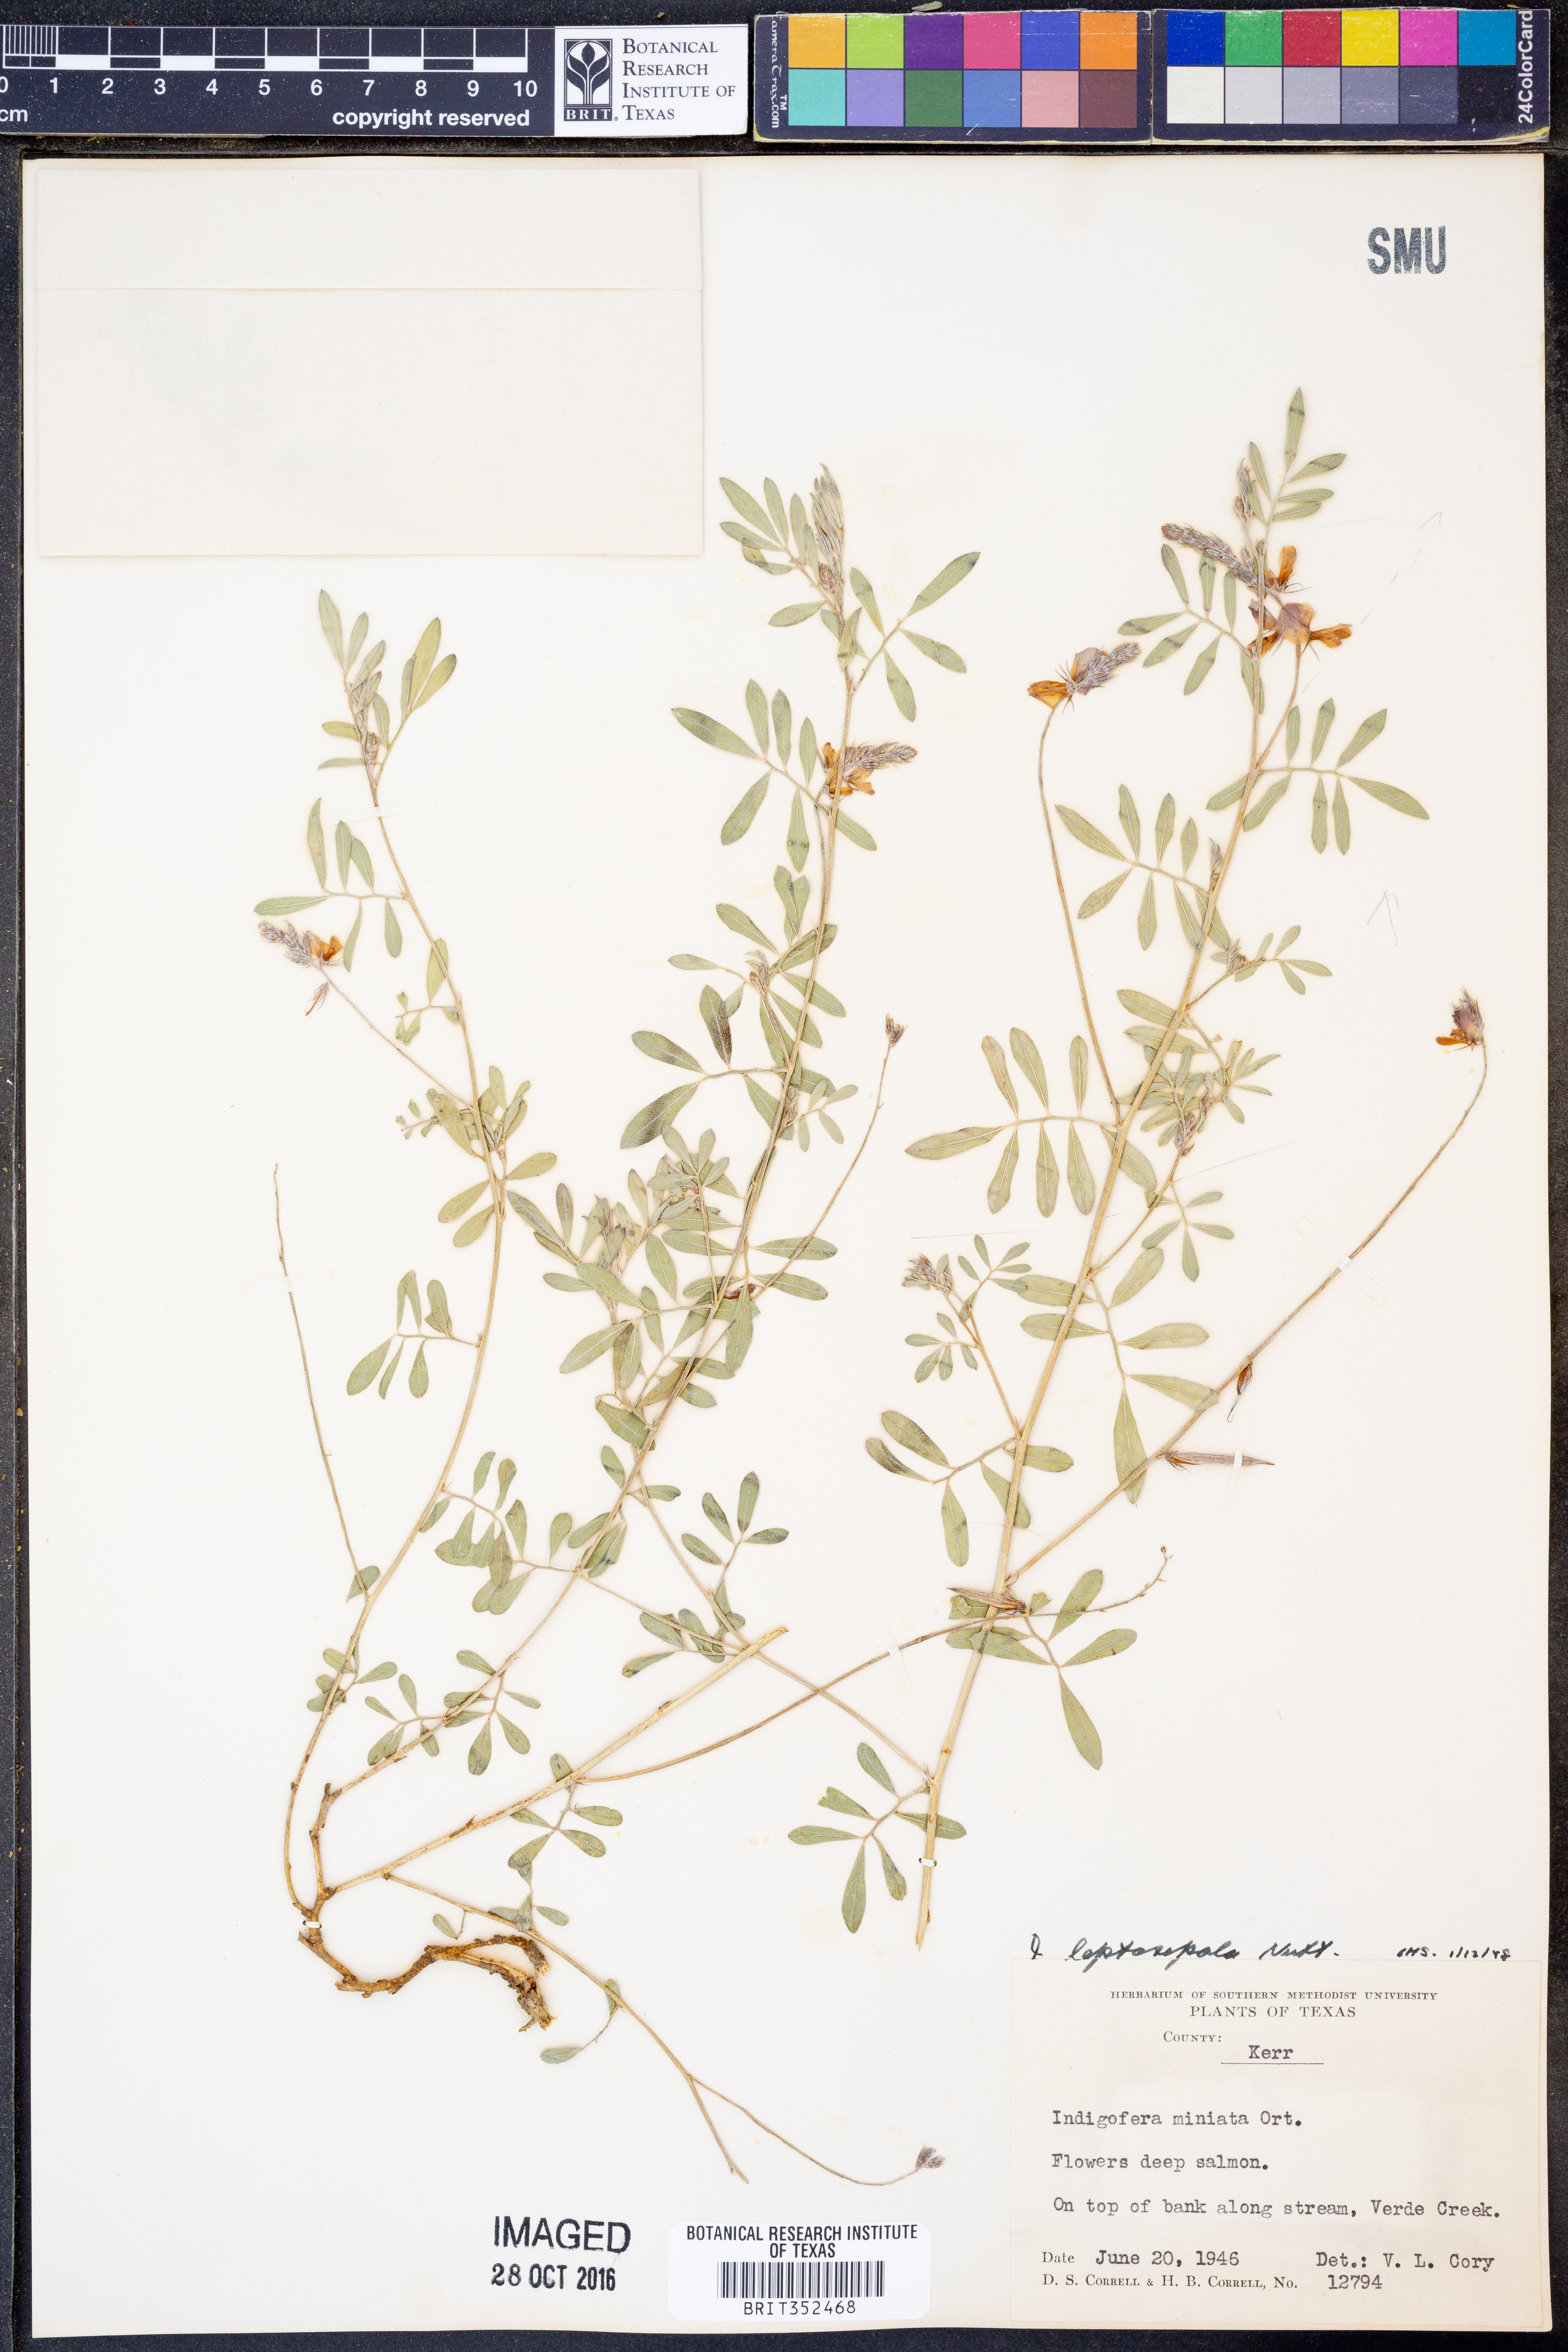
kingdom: Plantae
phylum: Tracheophyta
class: Magnoliopsida
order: Fabales
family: Fabaceae
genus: Indigofera
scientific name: Indigofera argutidens
